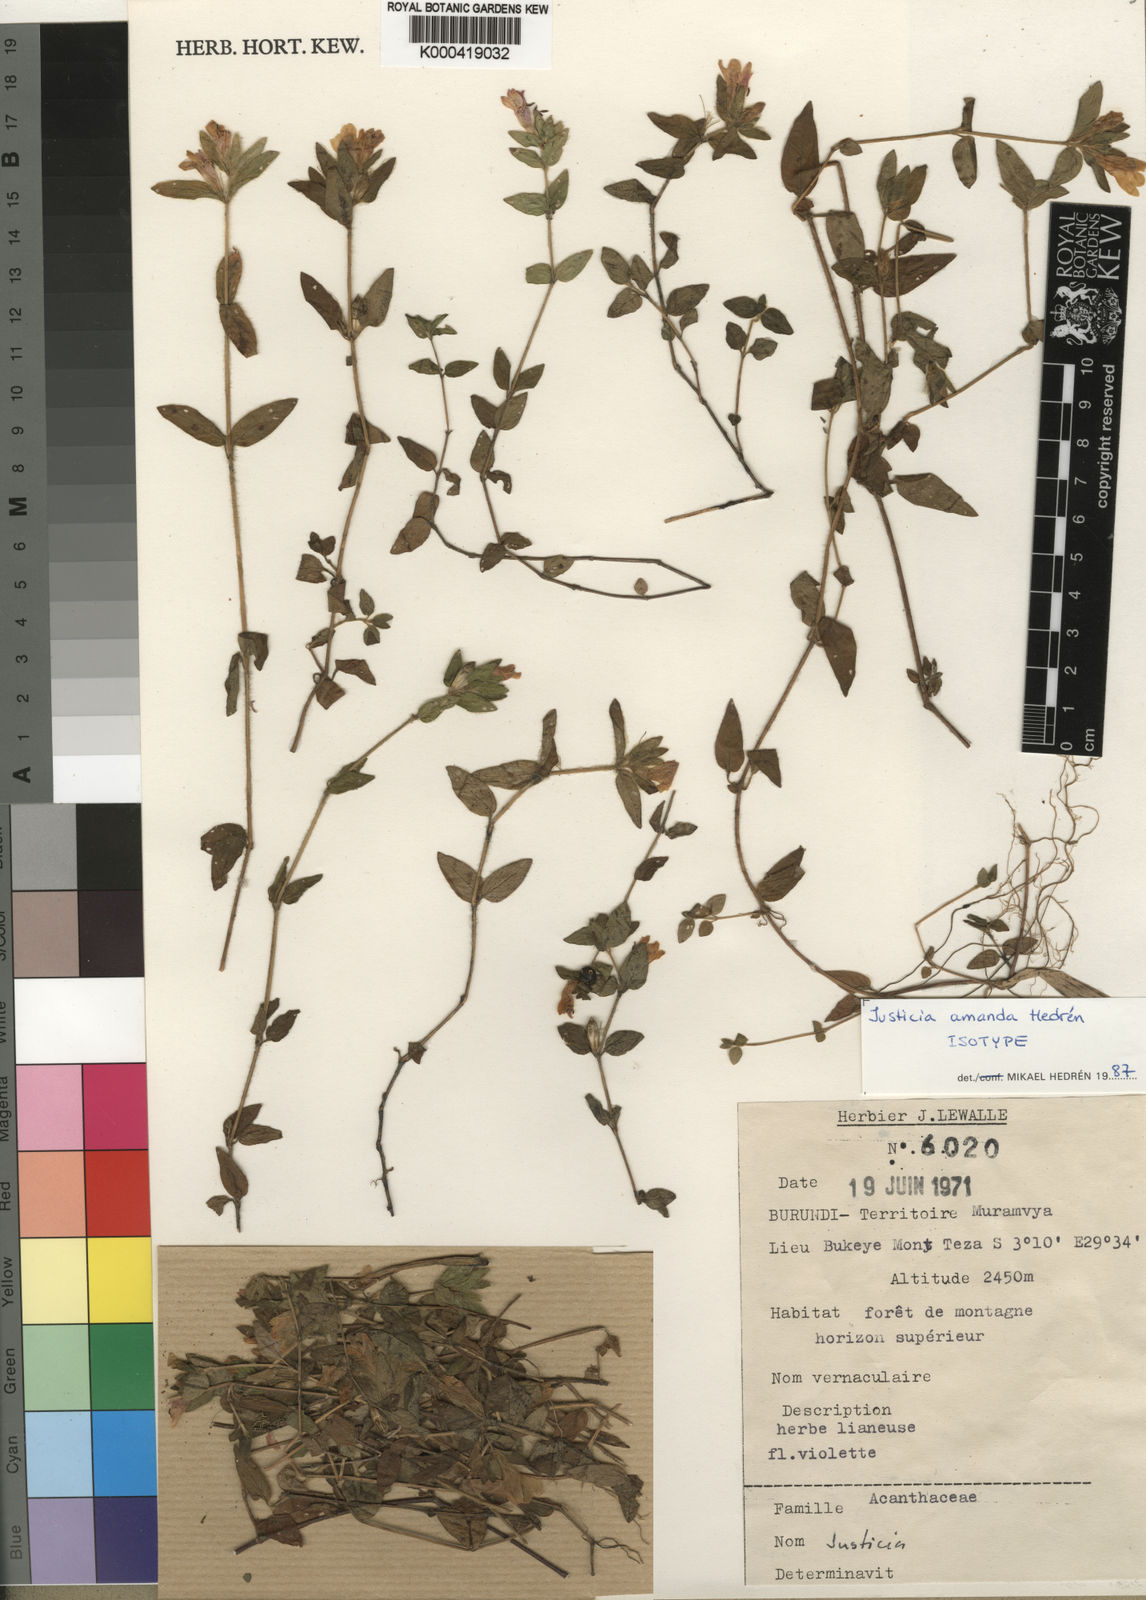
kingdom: Plantae
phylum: Tracheophyta
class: Magnoliopsida
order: Lamiales
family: Acanthaceae
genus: Justicia
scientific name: Justicia
